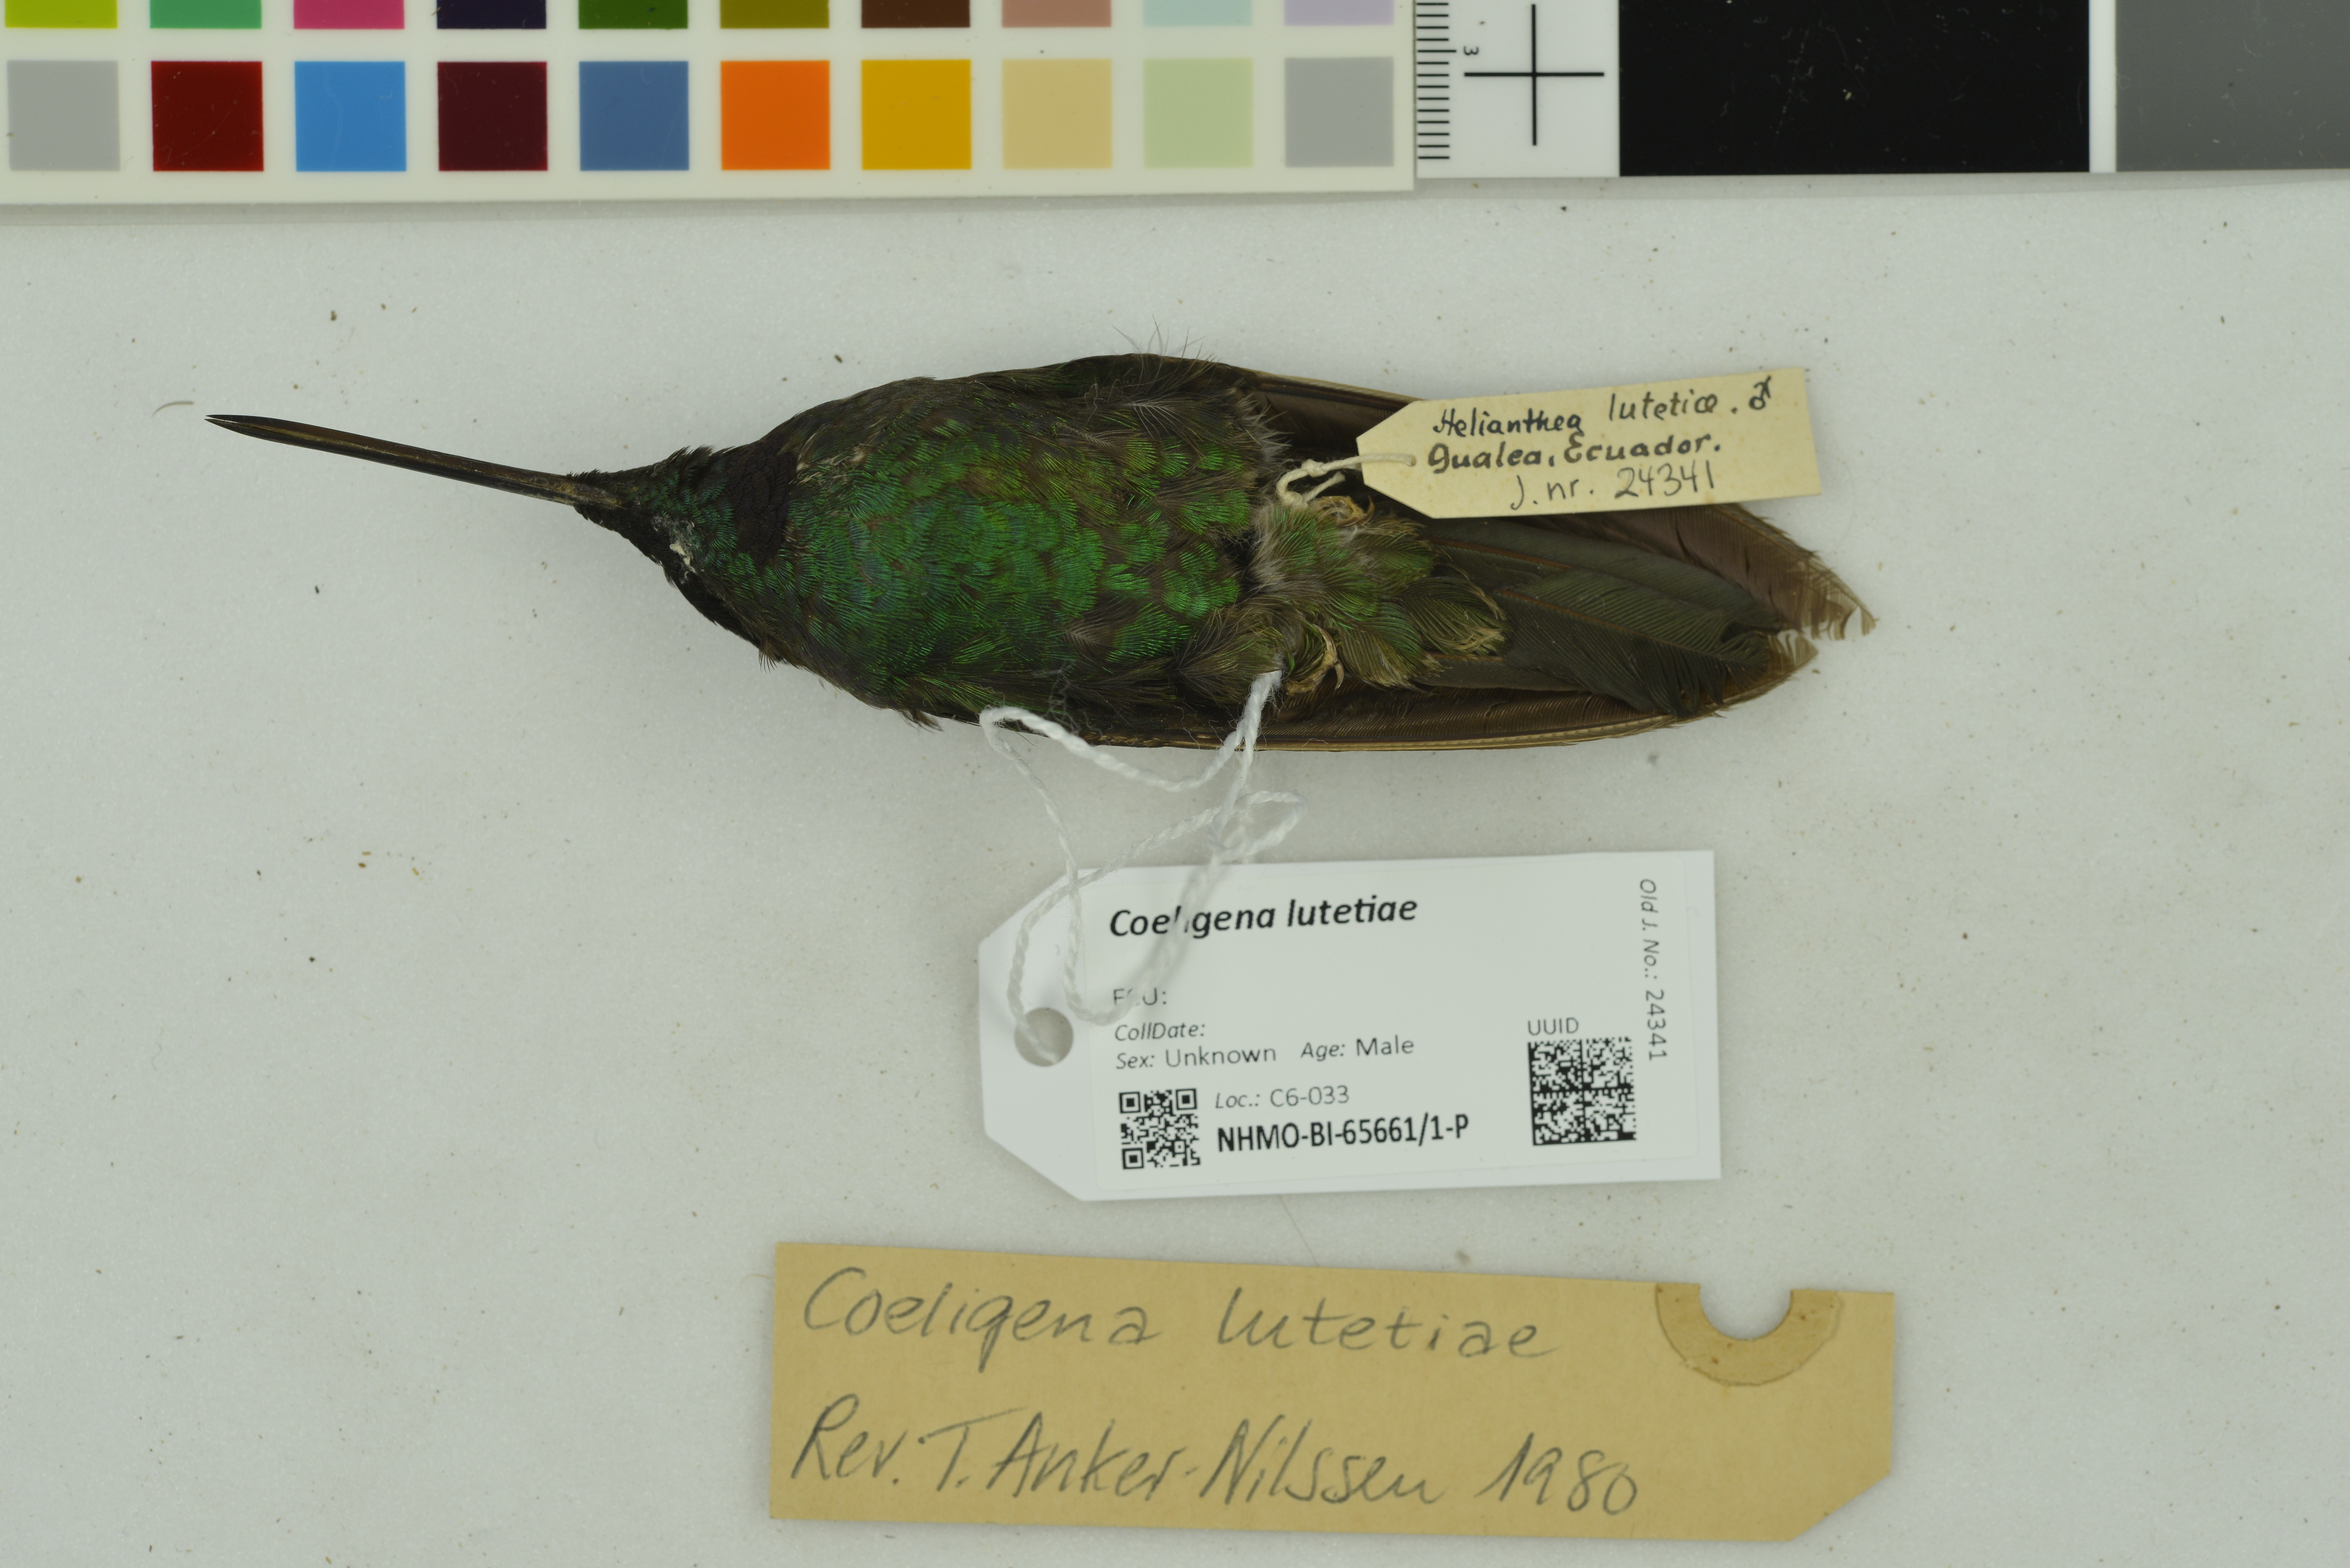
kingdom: Animalia
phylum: Chordata
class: Aves
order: Apodiformes
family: Trochilidae
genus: Coeligena
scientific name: Coeligena lutetiae
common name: Buff-winged starfrontlet
